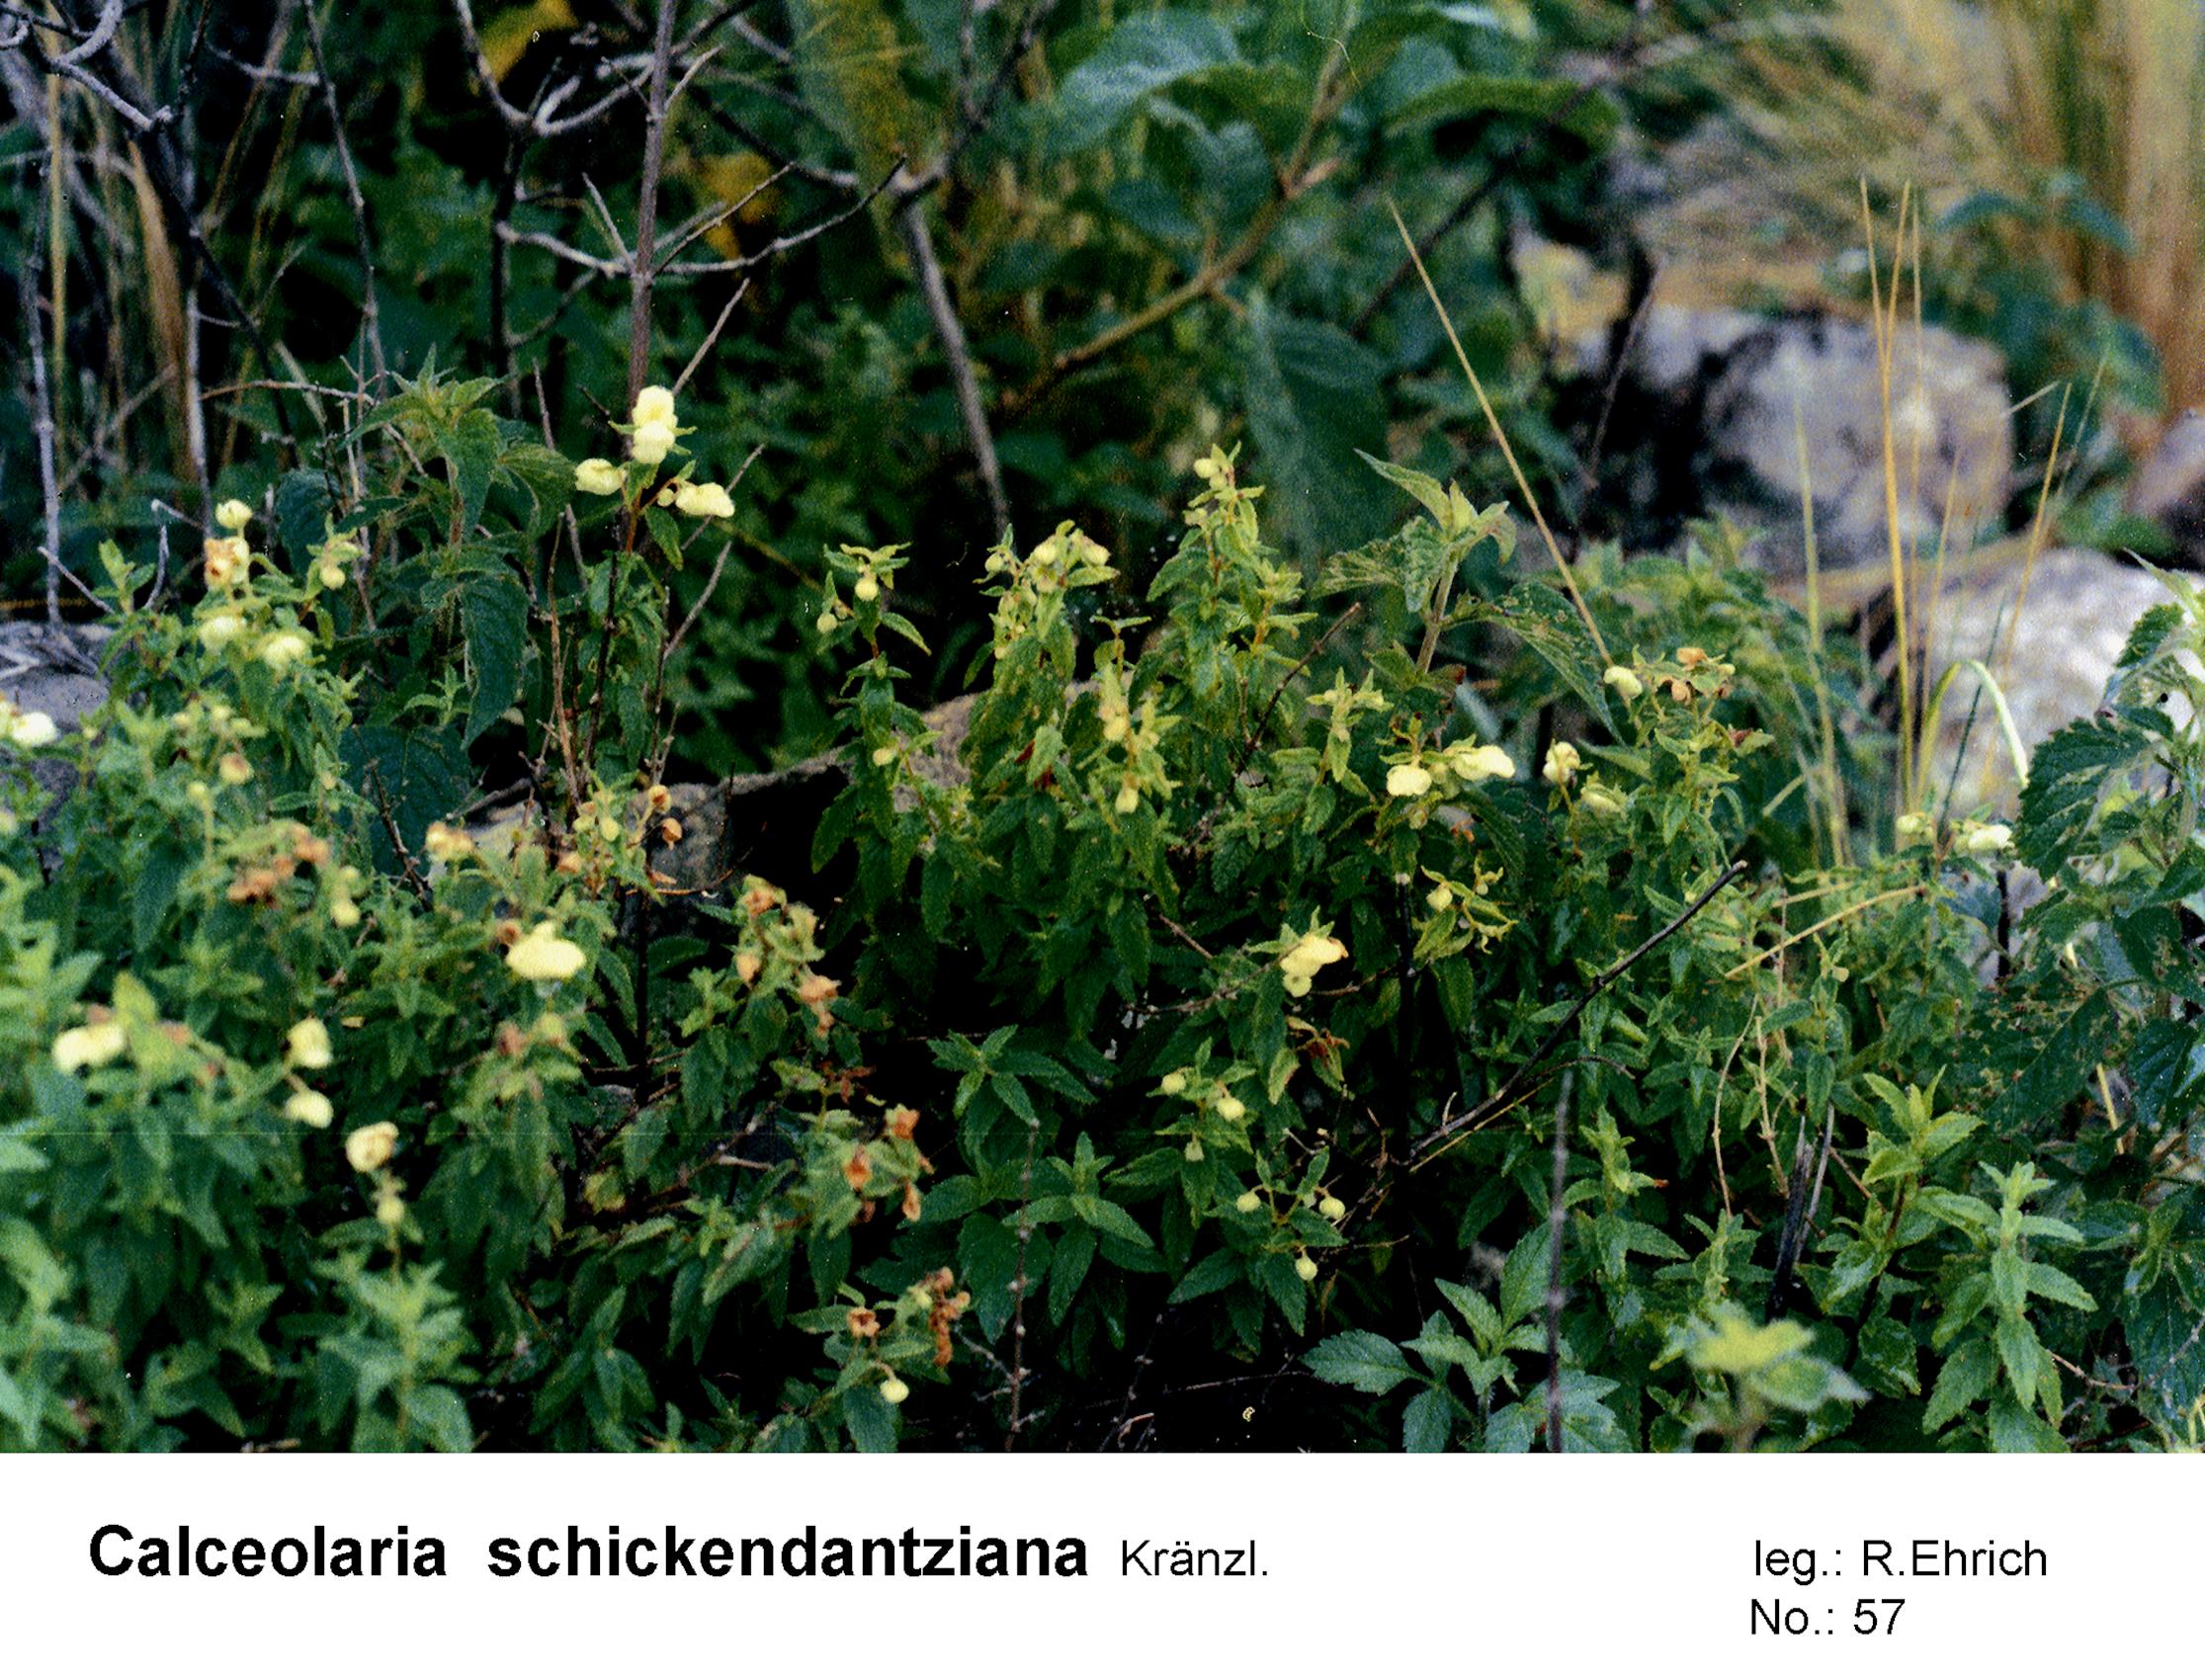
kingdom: Plantae
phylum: Tracheophyta
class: Magnoliopsida
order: Lamiales
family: Calceolariaceae
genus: Calceolaria
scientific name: Calceolaria schickendantziana
